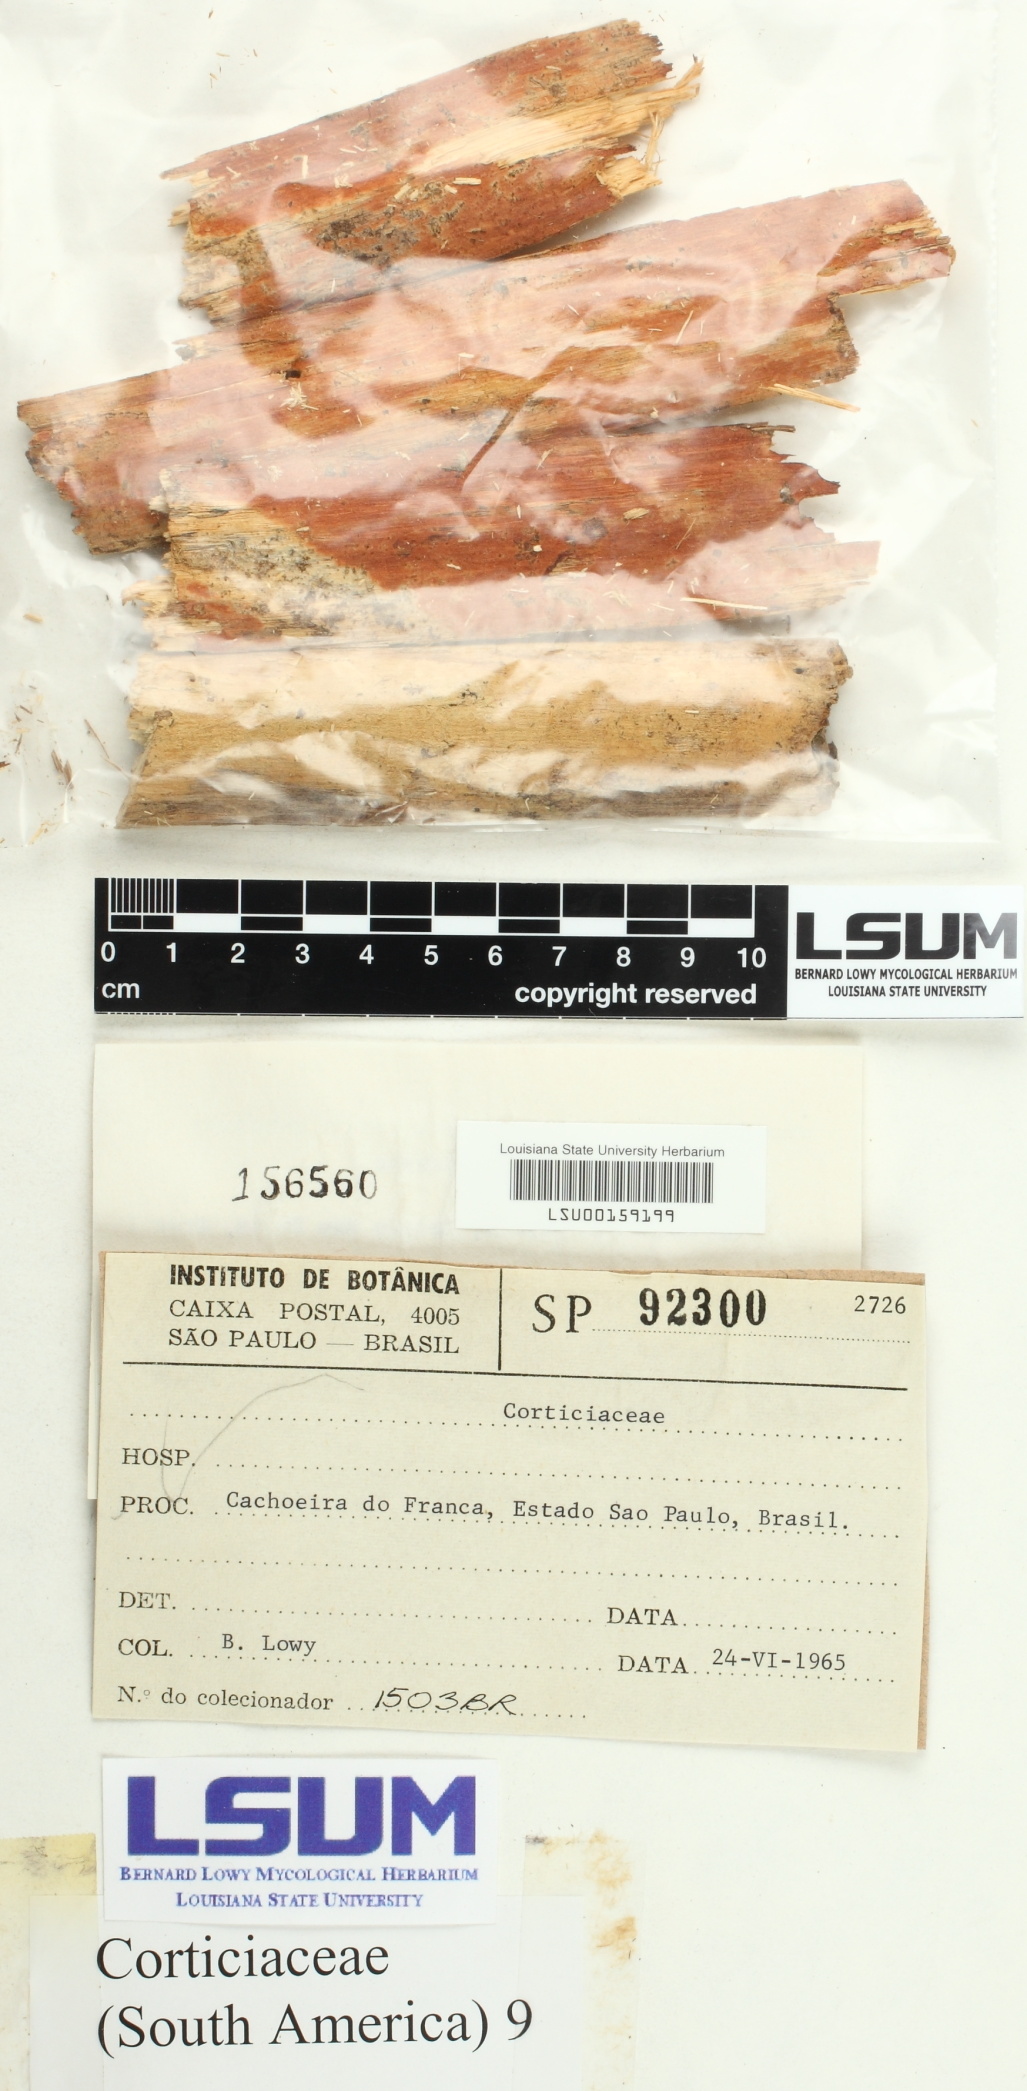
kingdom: Fungi
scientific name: Fungi
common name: Fungi
